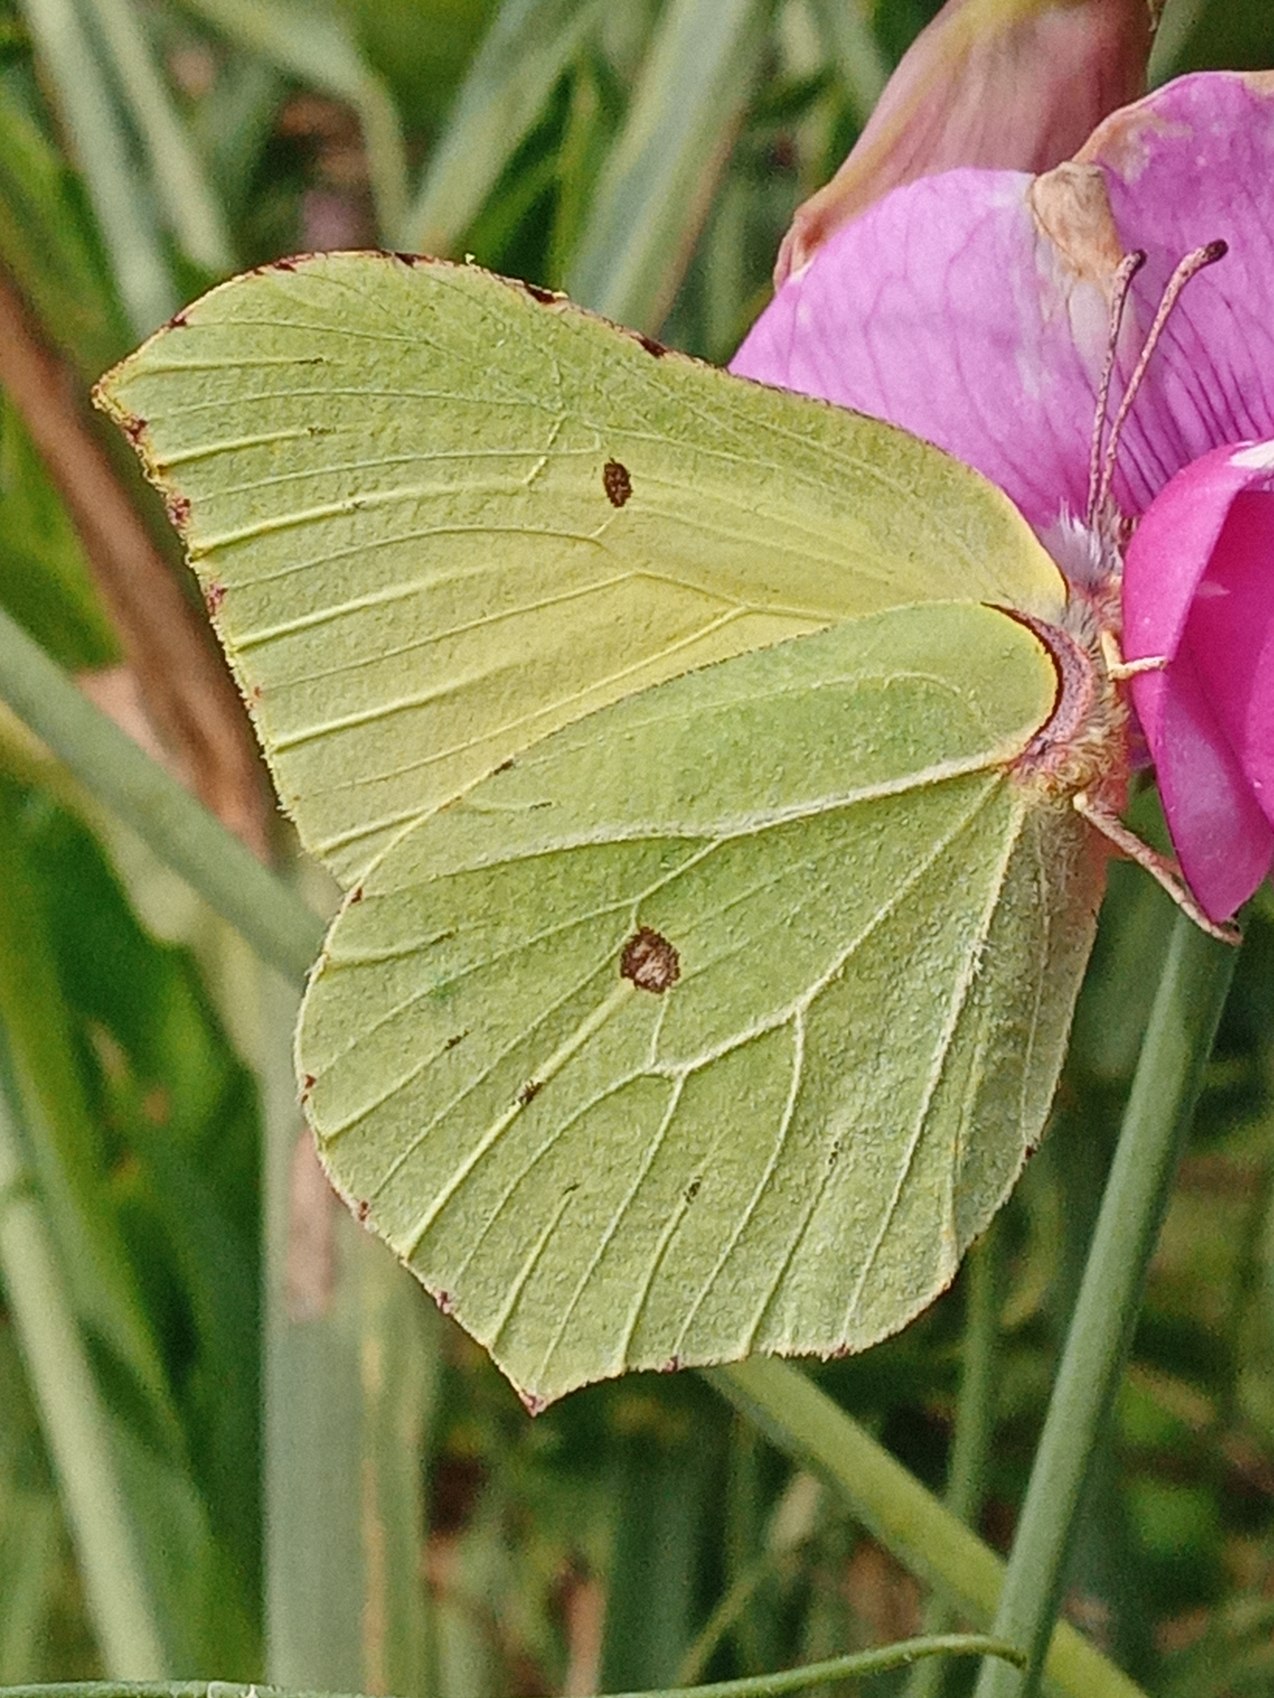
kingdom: Animalia
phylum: Arthropoda
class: Insecta
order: Lepidoptera
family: Pieridae
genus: Gonepteryx
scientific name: Gonepteryx rhamni
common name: Citronsommerfugl
